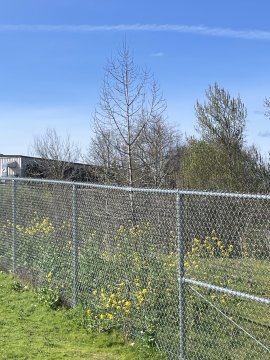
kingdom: Animalia
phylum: Arthropoda
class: Insecta
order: Lepidoptera
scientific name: Lepidoptera
